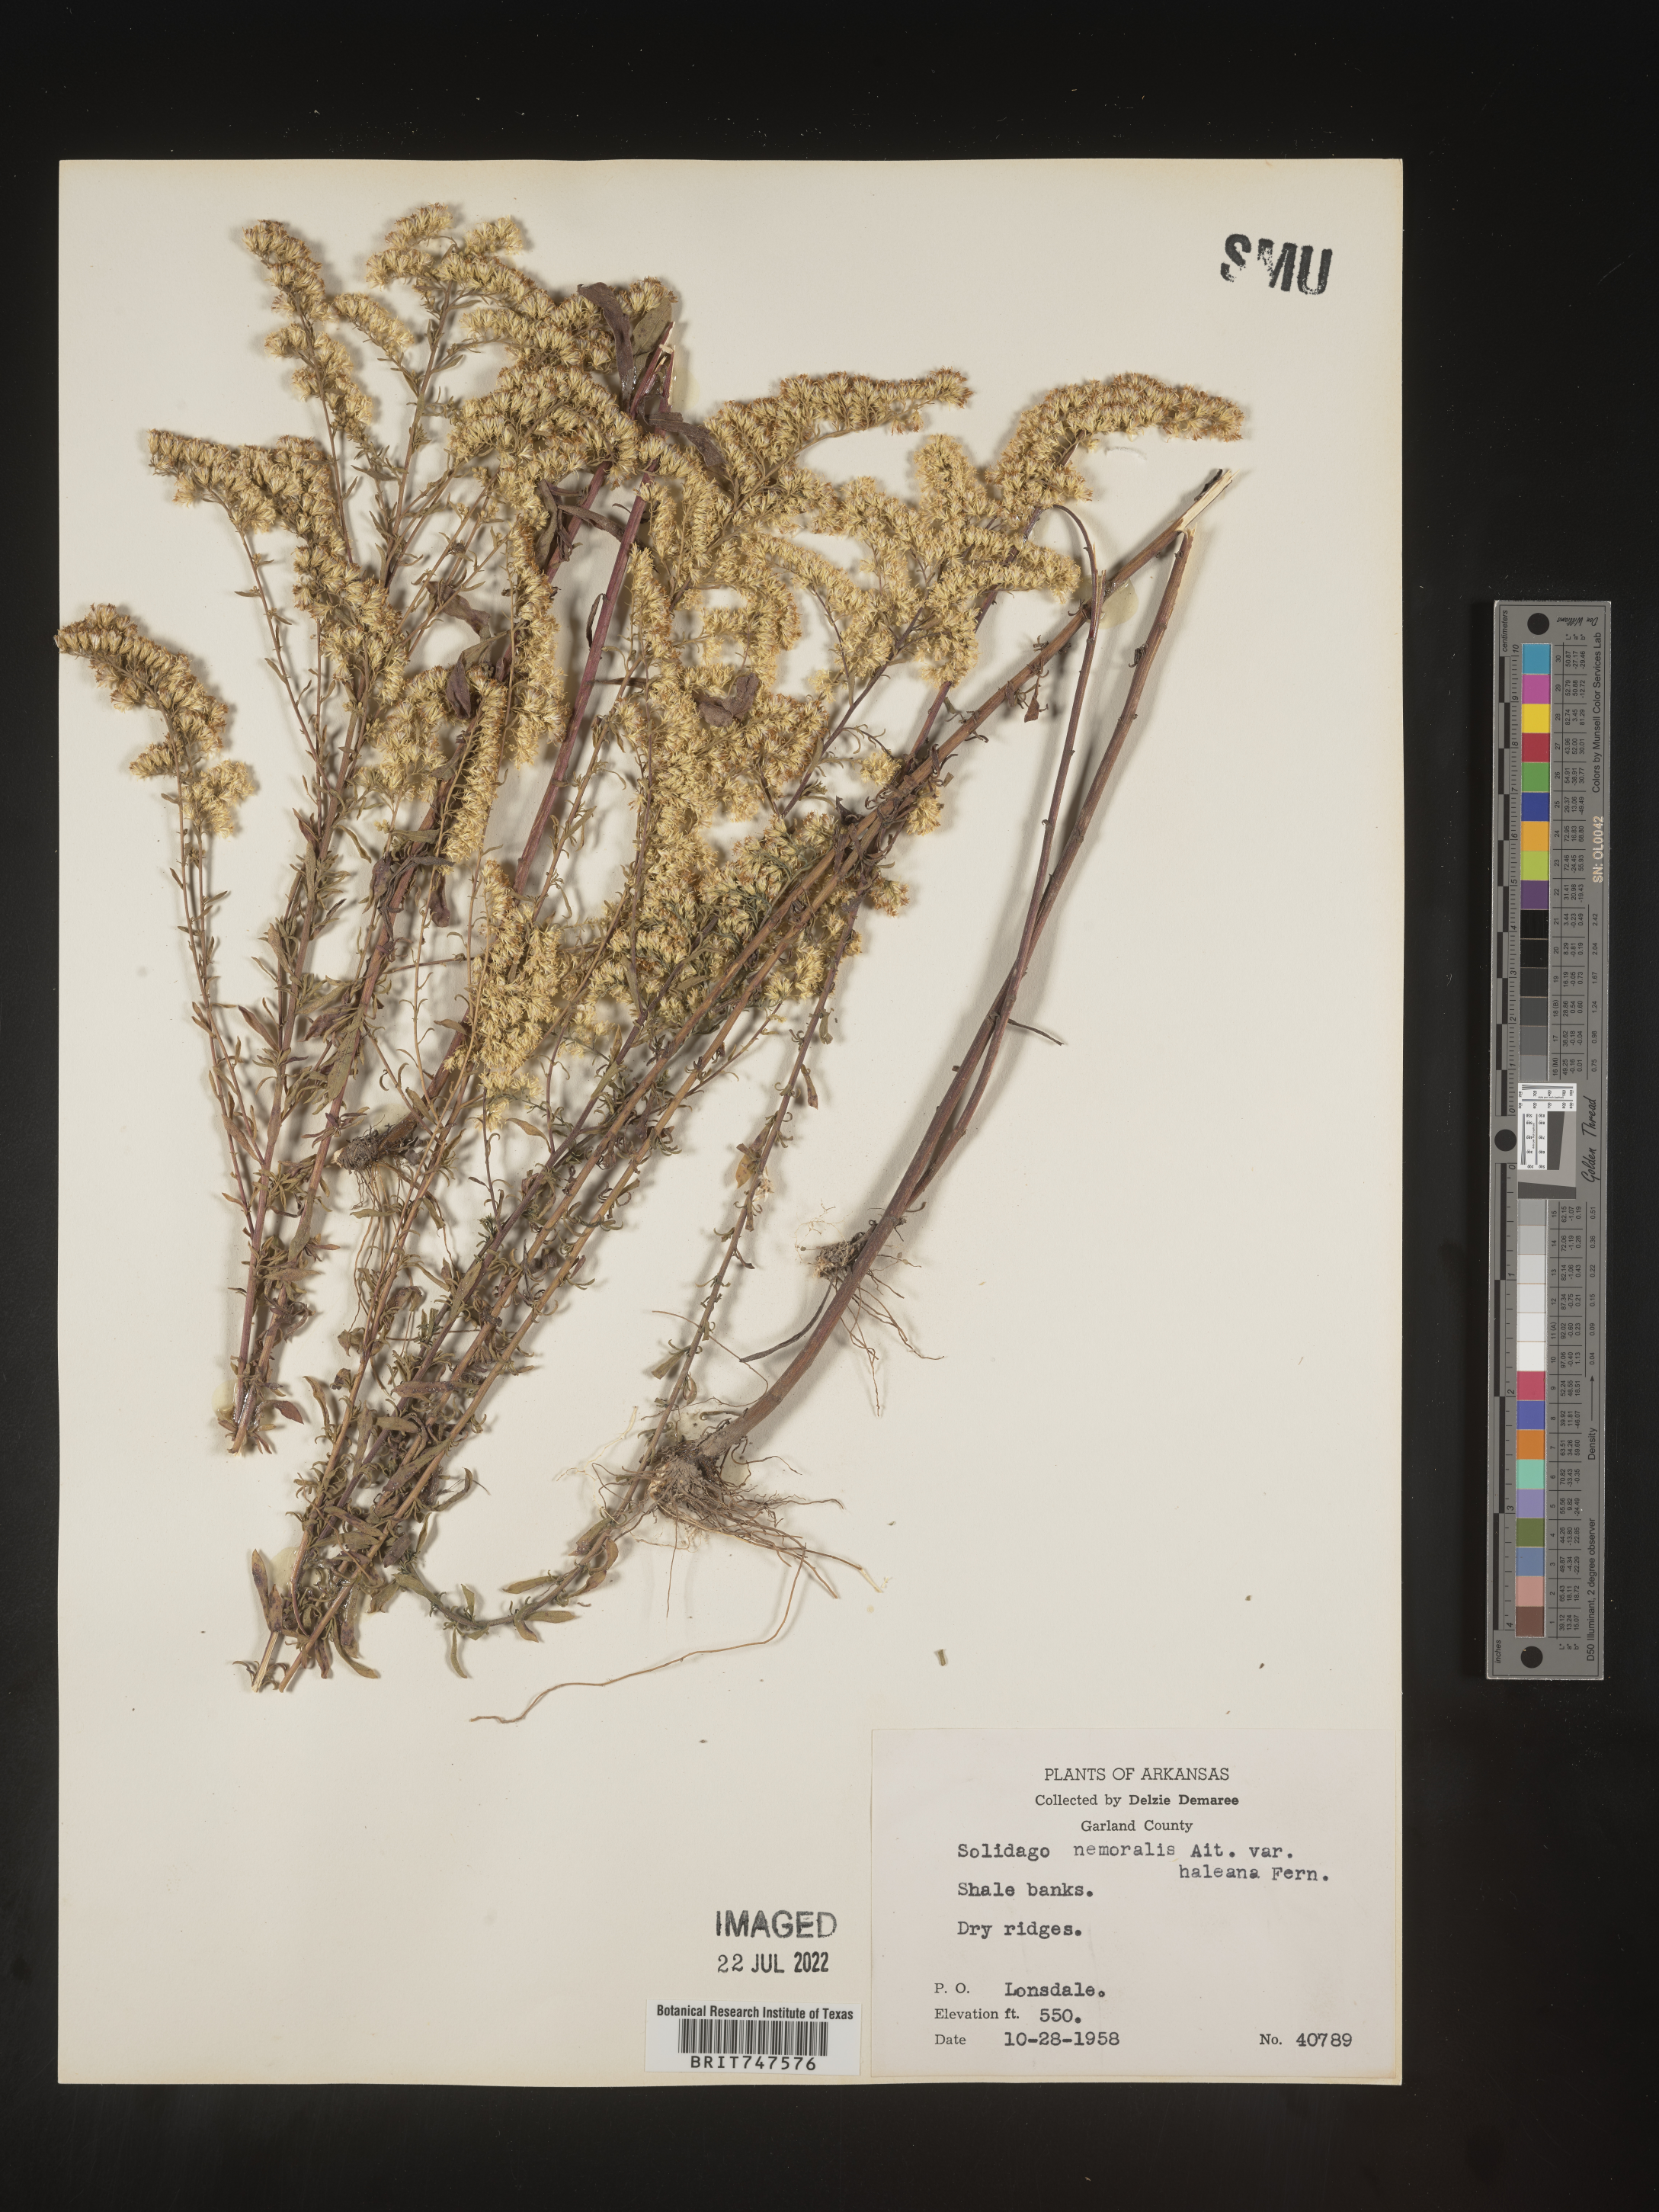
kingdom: Plantae
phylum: Tracheophyta
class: Magnoliopsida
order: Asterales
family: Asteraceae
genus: Solidago
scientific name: Solidago nemoralis
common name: Grey goldenrod
